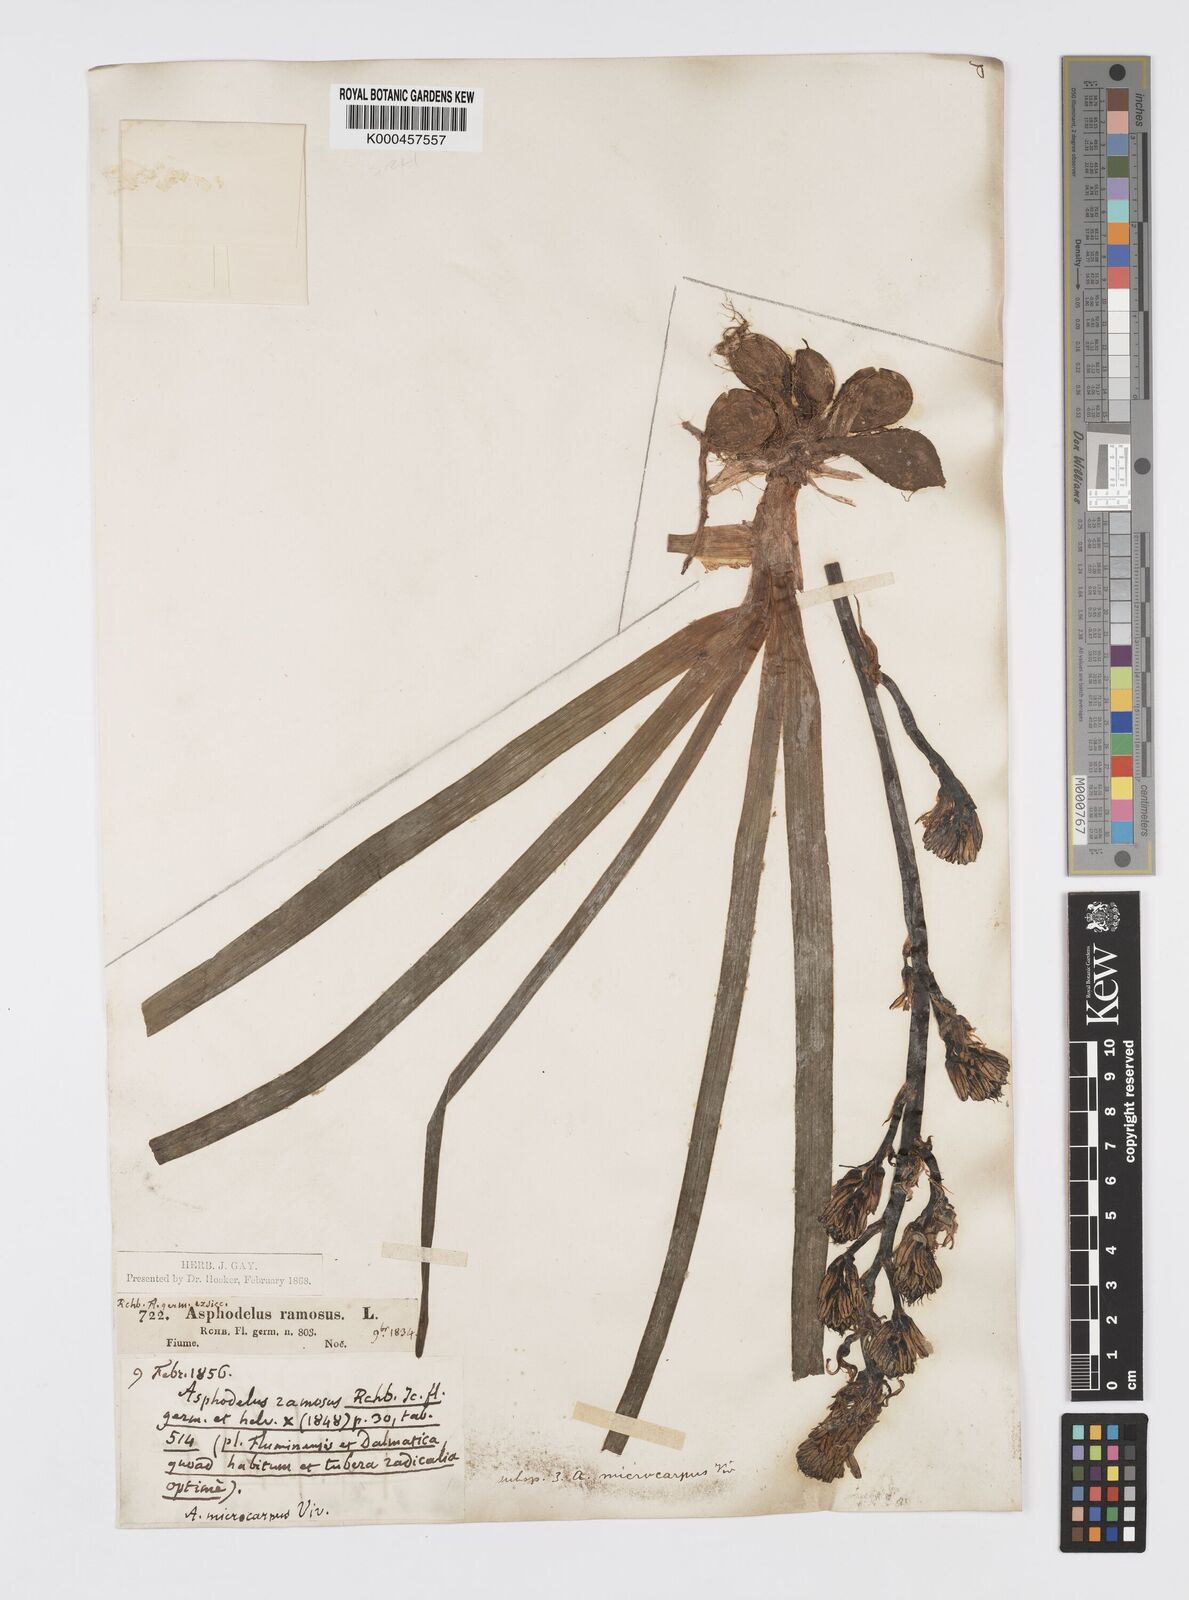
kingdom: Plantae
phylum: Tracheophyta
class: Liliopsida
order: Asparagales
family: Asphodelaceae
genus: Asphodelus
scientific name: Asphodelus aestivus
